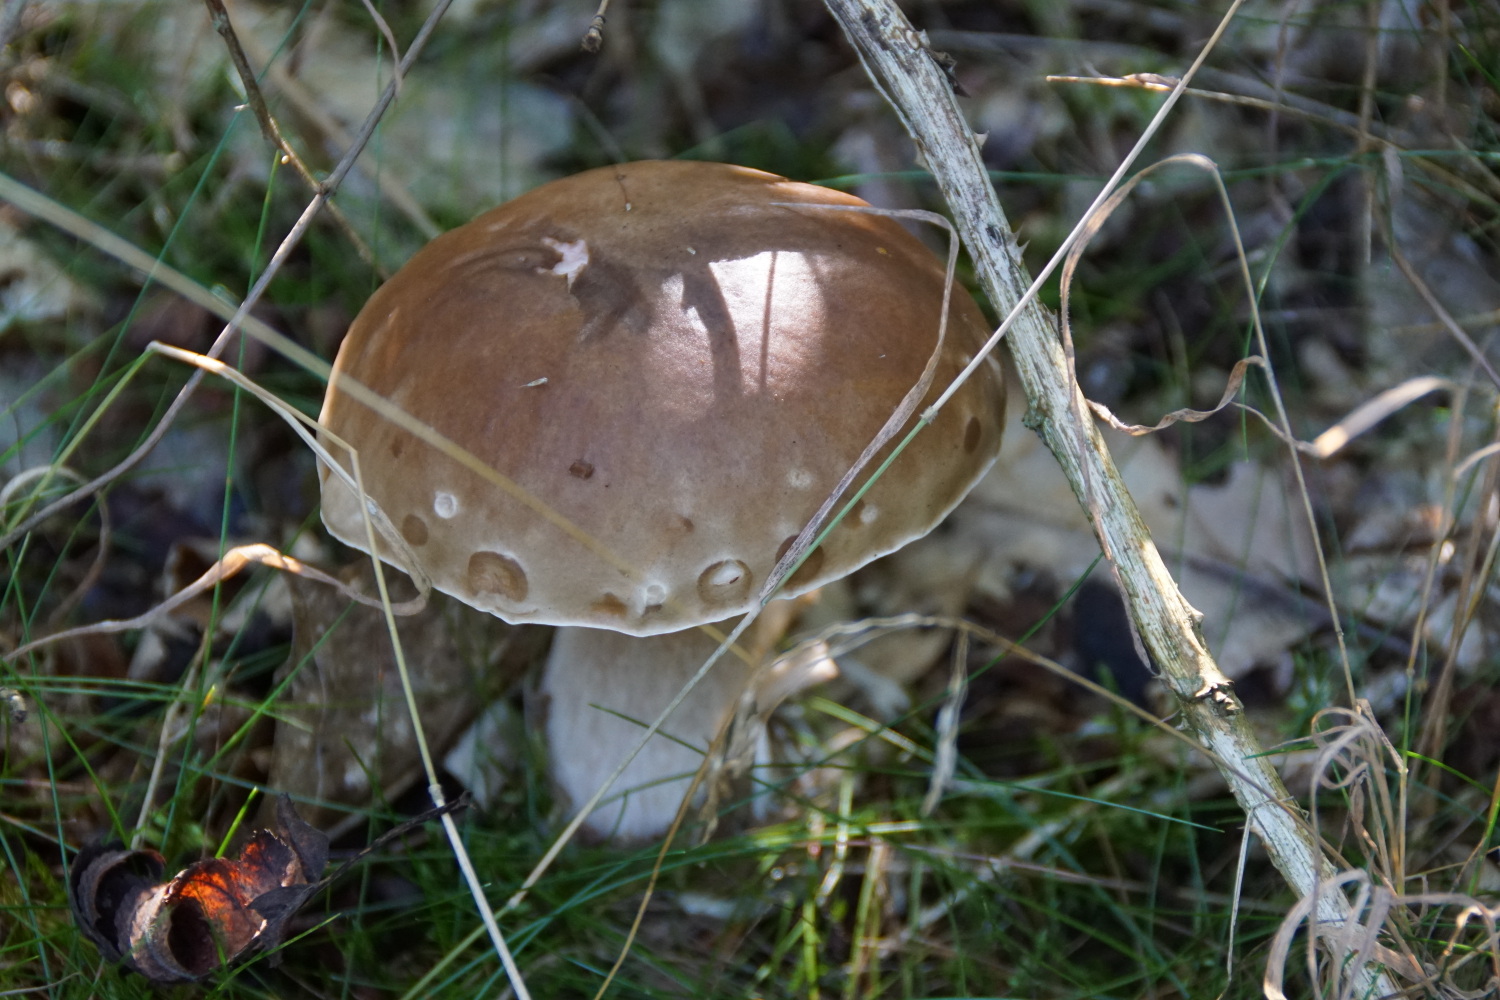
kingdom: Fungi
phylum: Basidiomycota
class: Agaricomycetes
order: Boletales
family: Boletaceae
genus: Boletus
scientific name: Boletus reticulatus
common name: sommer-rørhat
